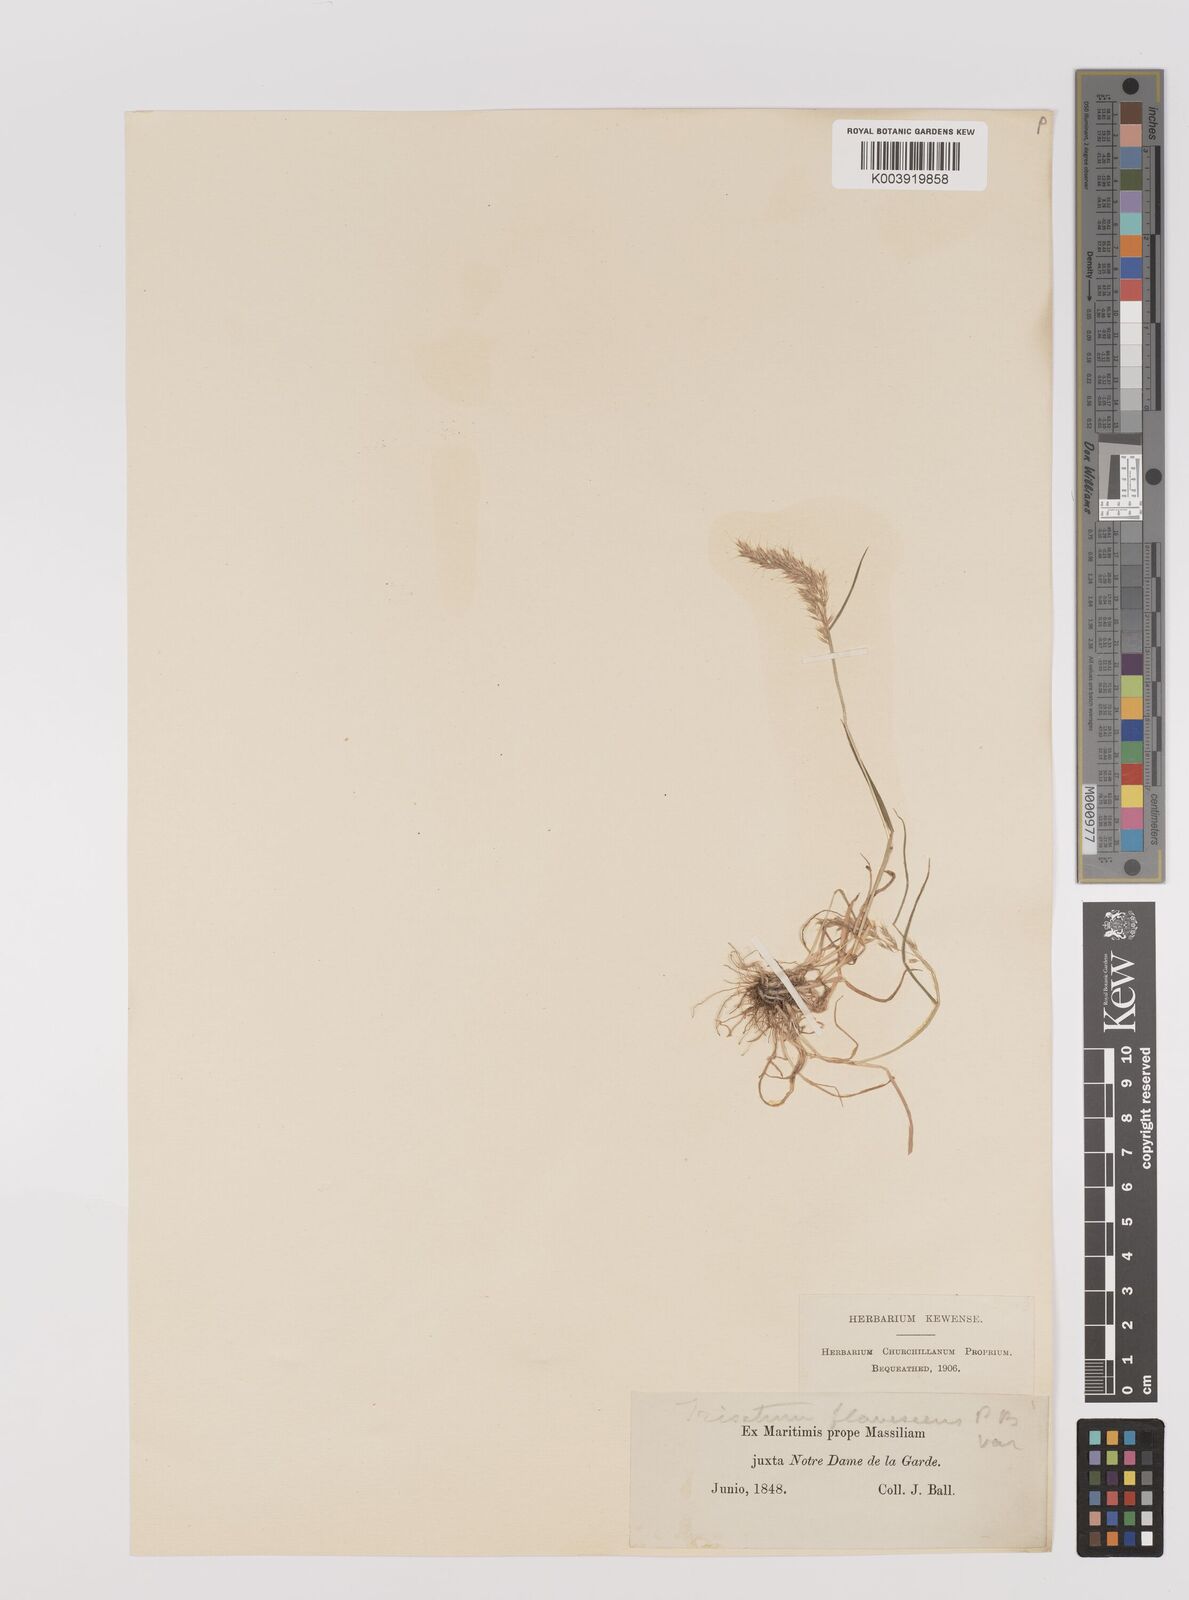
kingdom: Plantae
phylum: Tracheophyta
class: Liliopsida
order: Poales
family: Poaceae
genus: Trisetum
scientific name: Trisetum flavescens
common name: Yellow oat-grass
